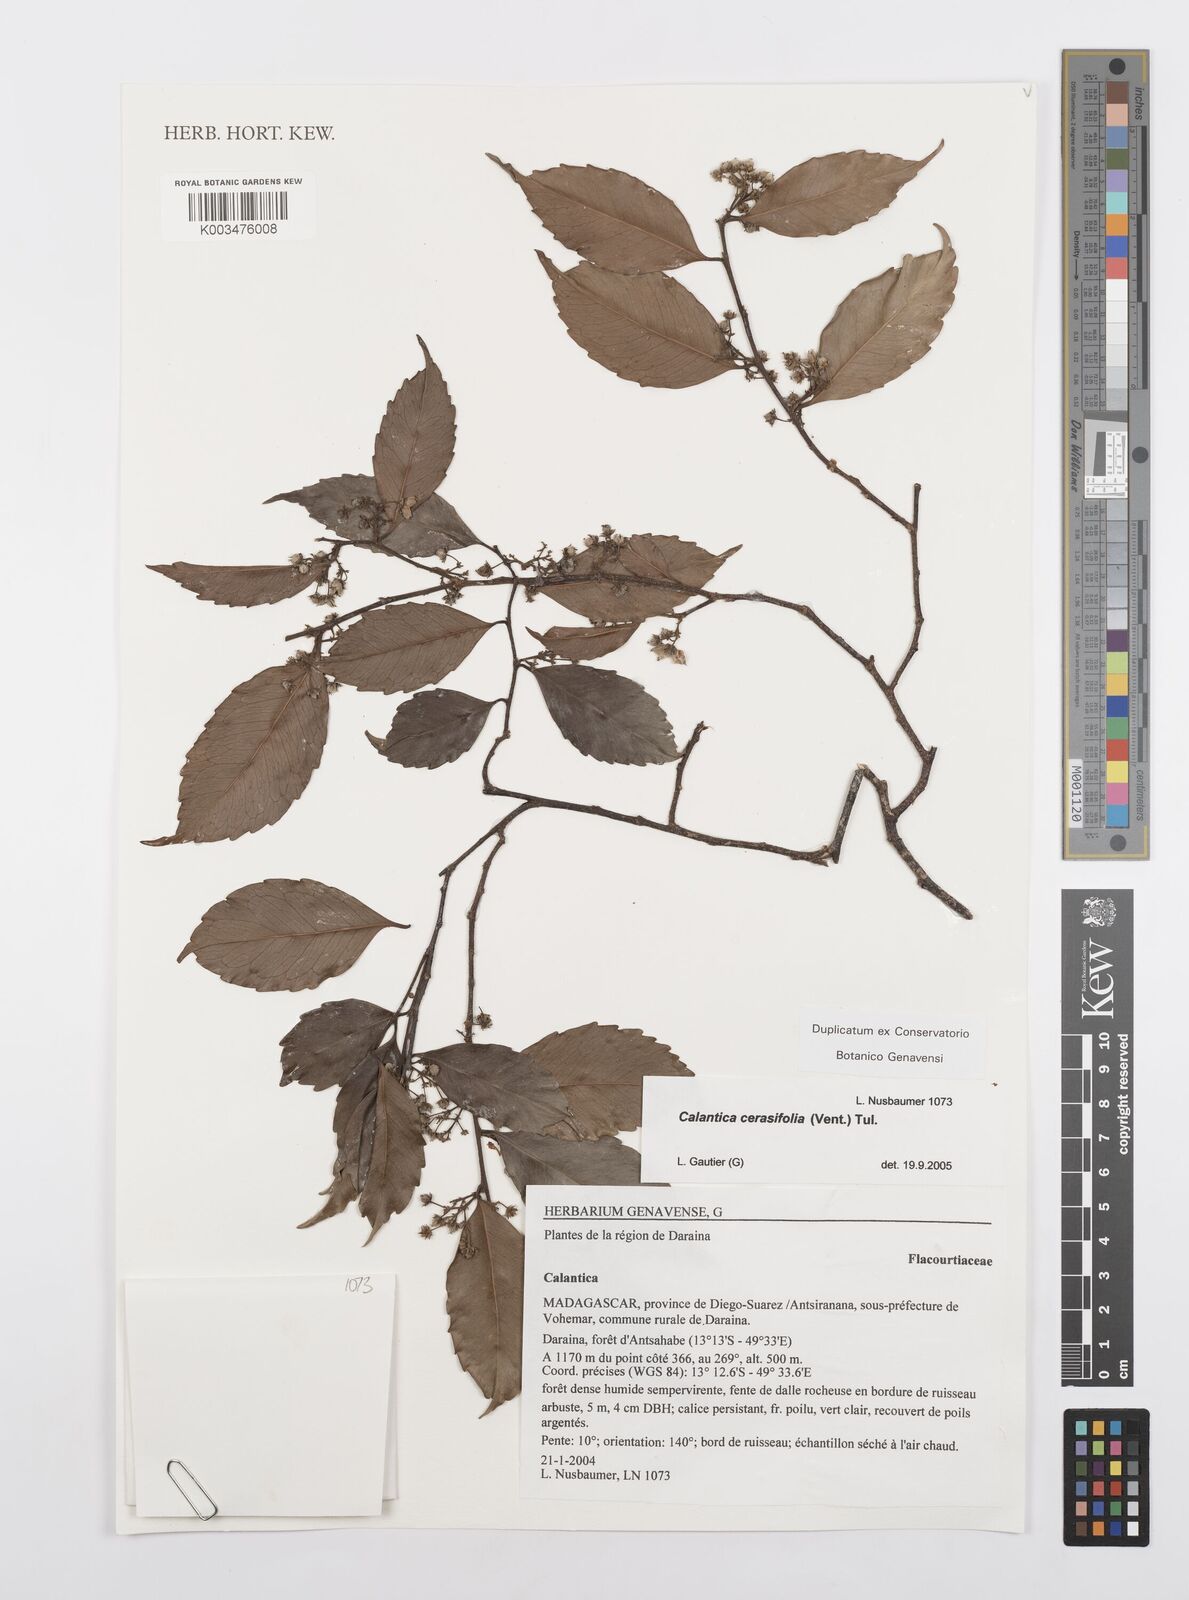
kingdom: Plantae
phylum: Tracheophyta
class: Magnoliopsida
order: Malpighiales
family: Salicaceae
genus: Calantica
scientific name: Calantica cerasifolia
